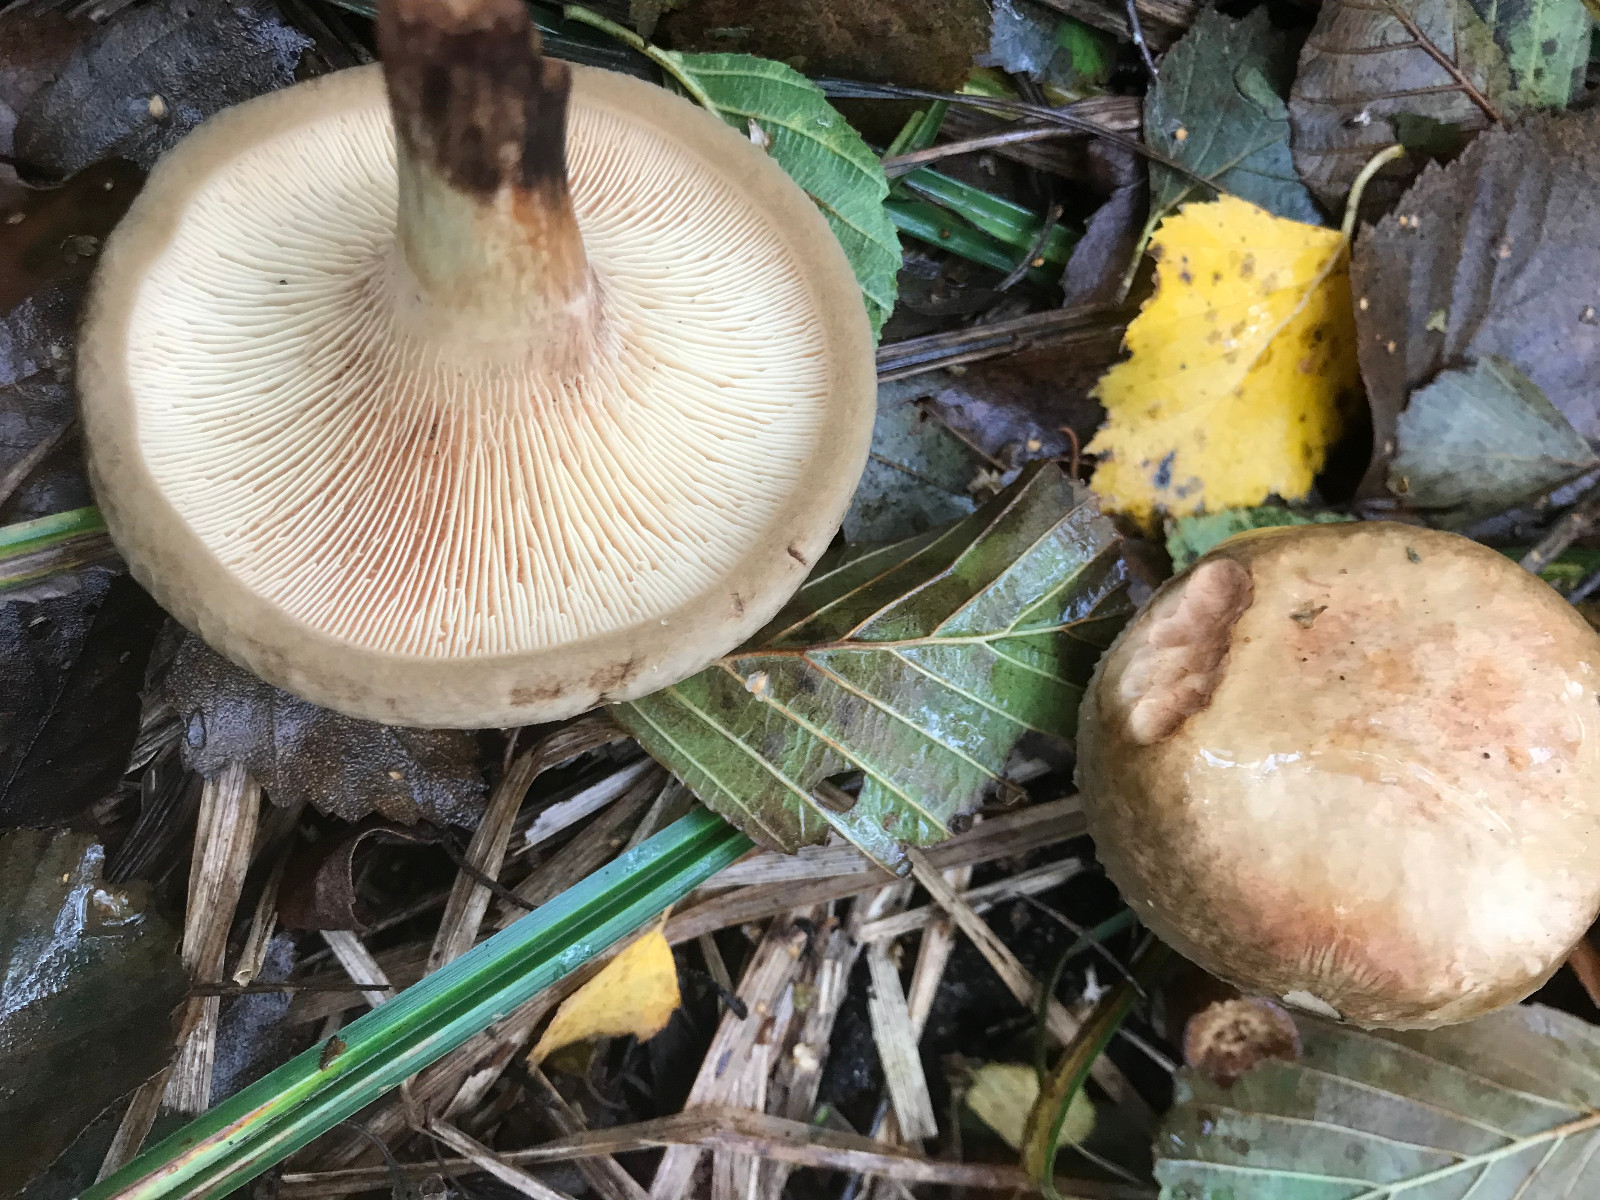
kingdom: Fungi
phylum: Basidiomycota
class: Agaricomycetes
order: Boletales
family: Paxillaceae
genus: Paxillus
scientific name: Paxillus rubicundulus
